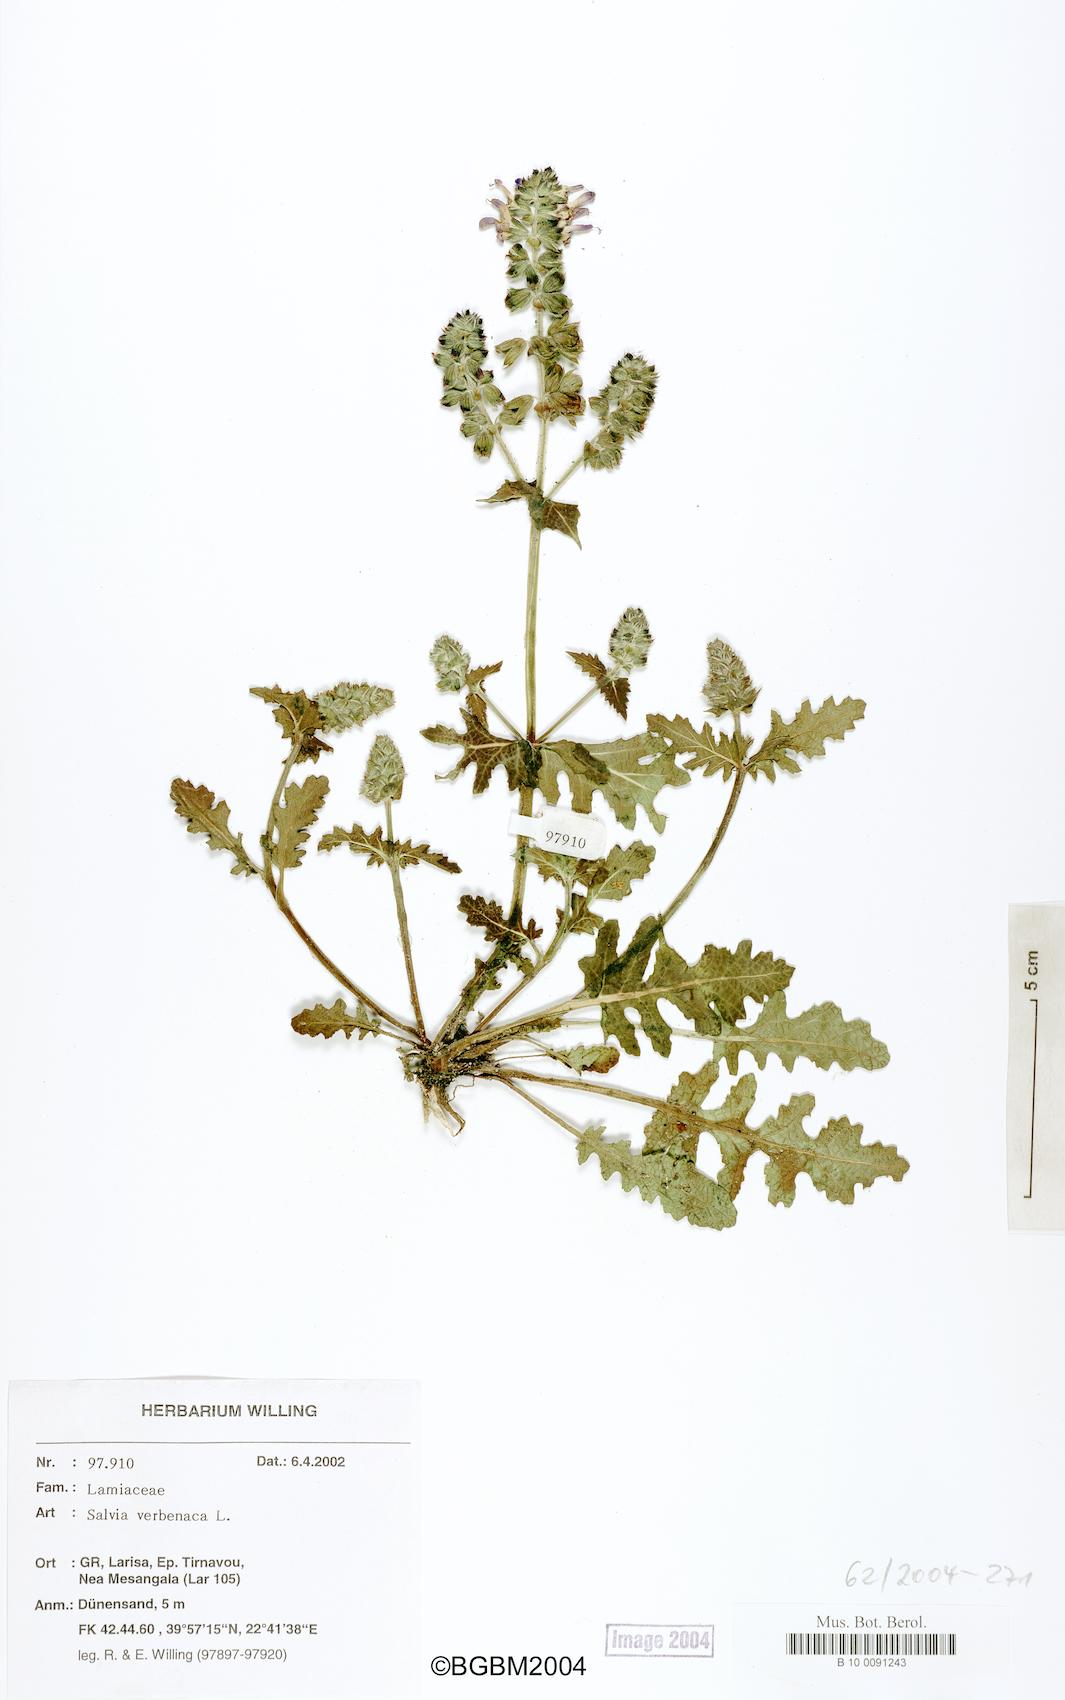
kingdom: Plantae
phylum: Tracheophyta
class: Magnoliopsida
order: Lamiales
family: Lamiaceae
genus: Salvia
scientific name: Salvia verbenaca
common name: Wild clary
